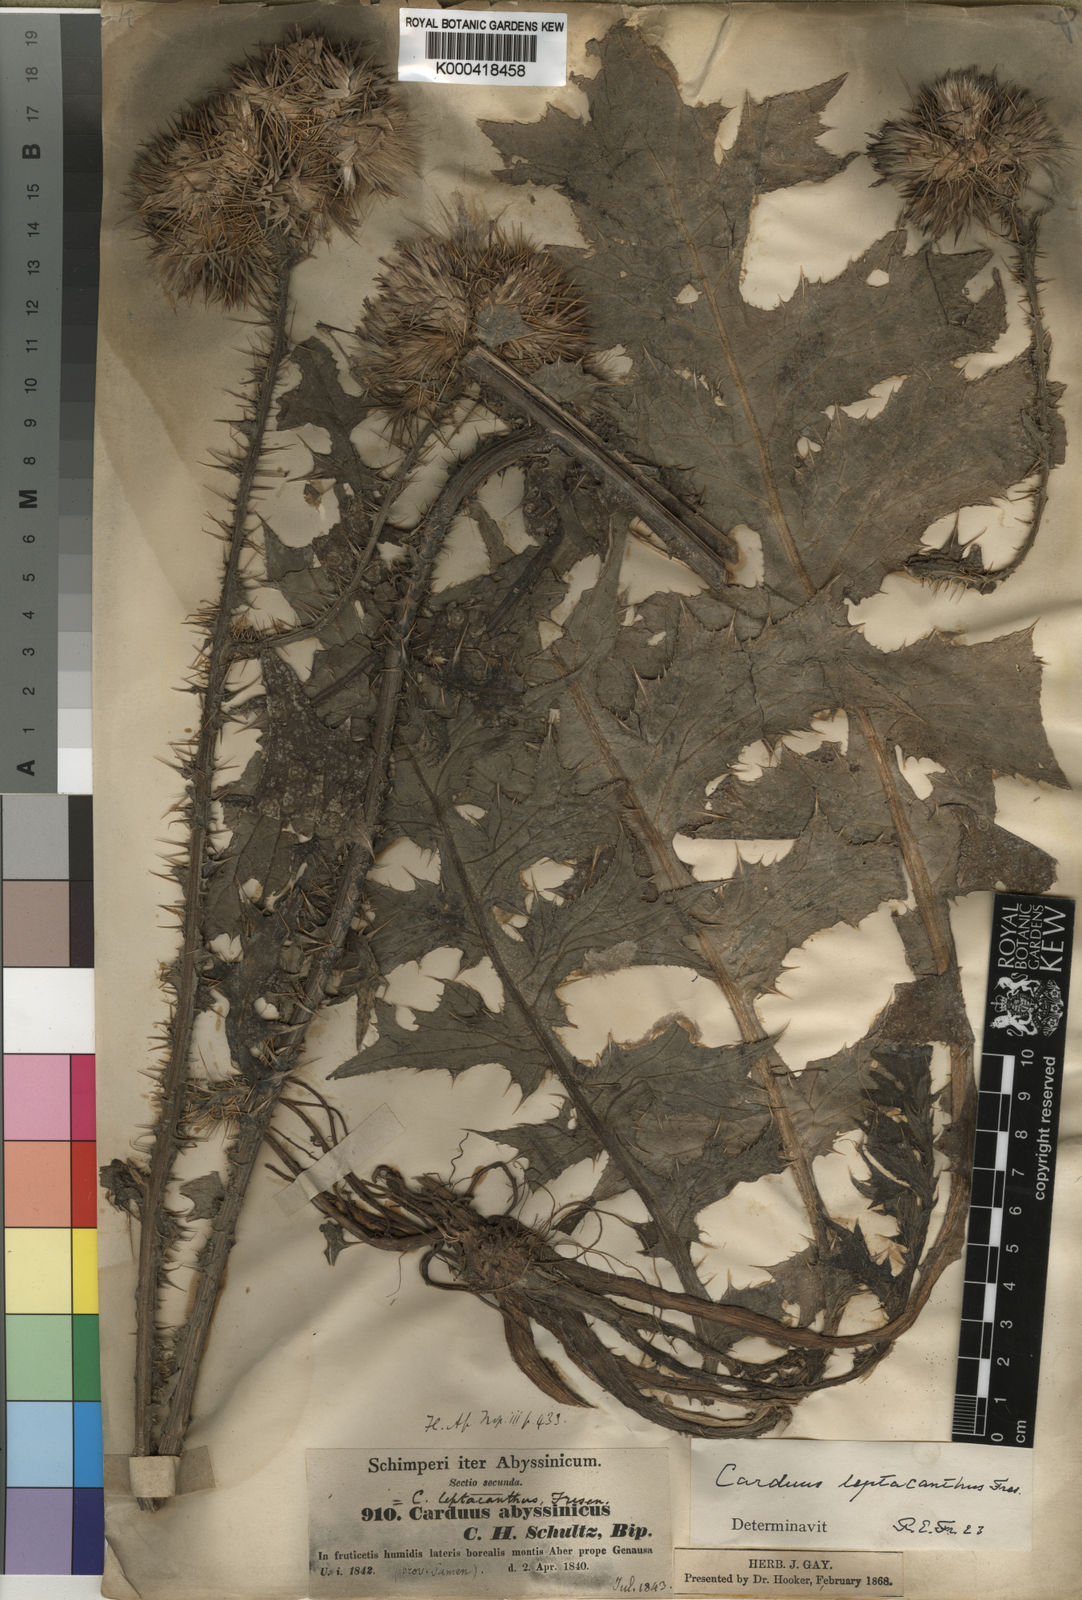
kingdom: Plantae
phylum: Tracheophyta
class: Magnoliopsida
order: Asterales
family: Asteraceae
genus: Carduus
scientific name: Carduus leptacanthus
